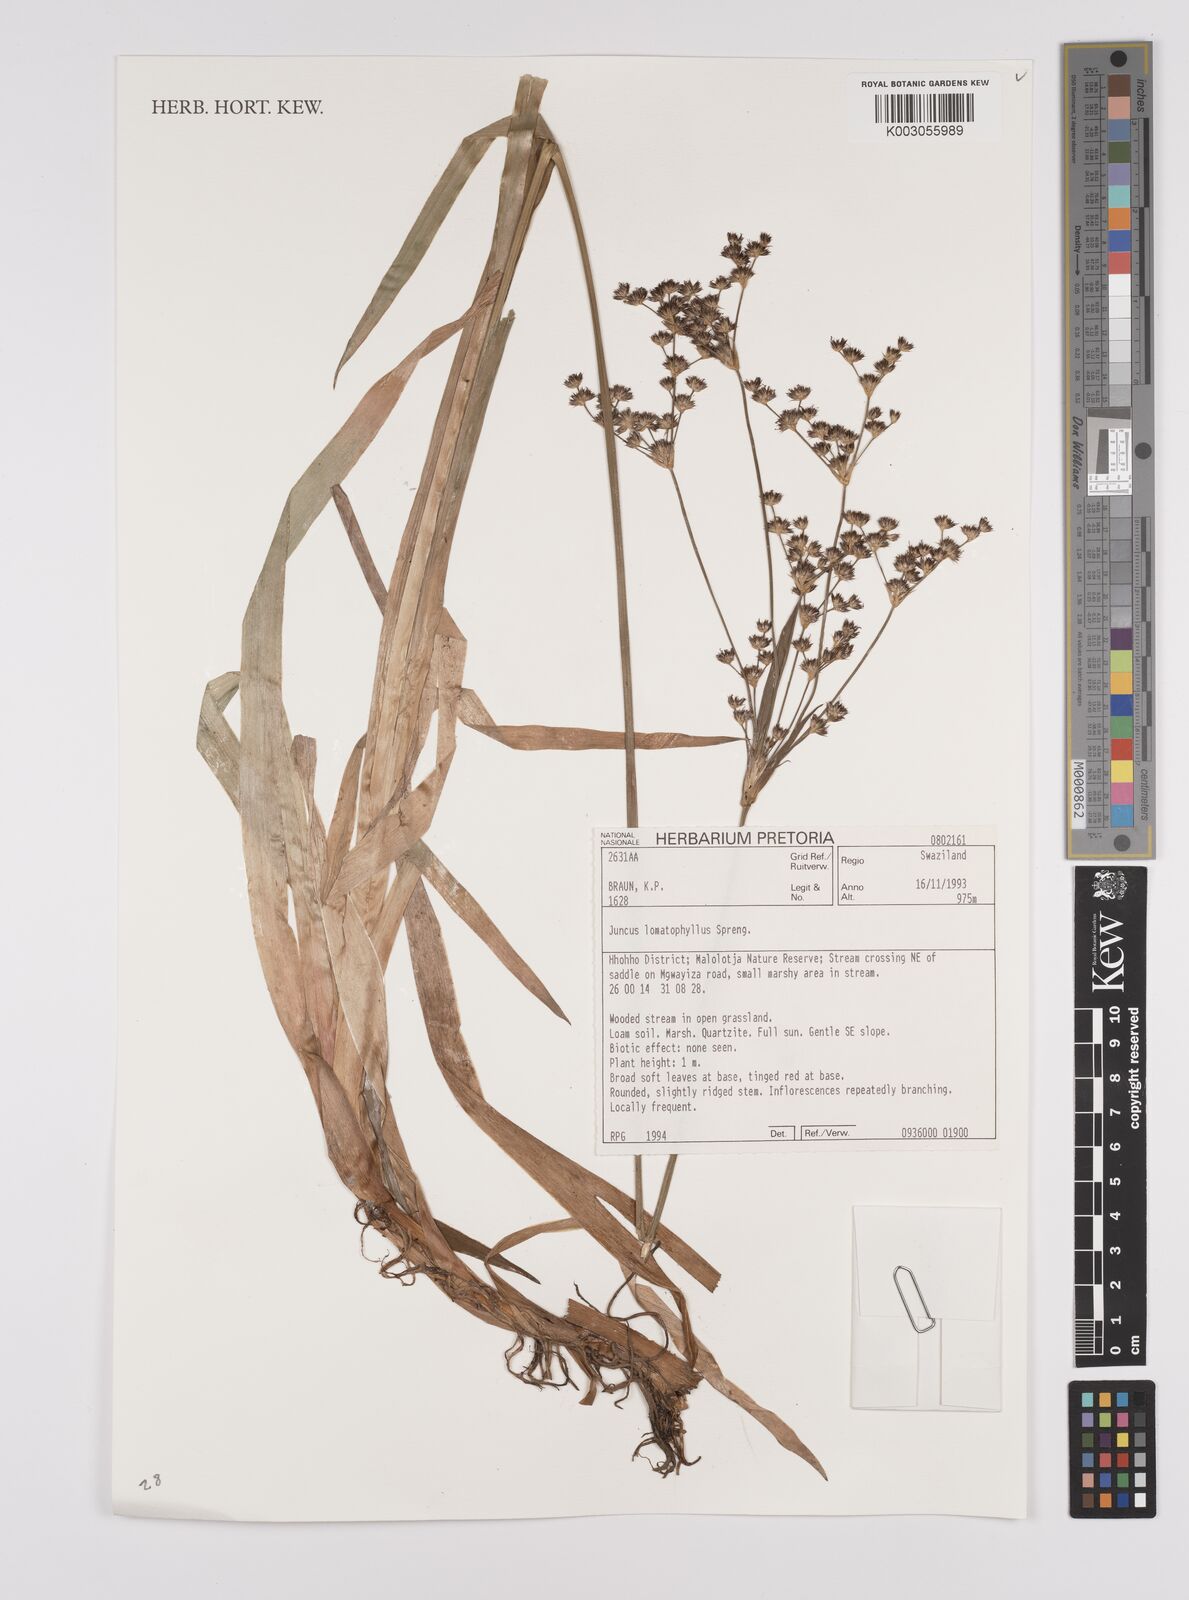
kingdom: Plantae
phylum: Tracheophyta
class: Liliopsida
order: Poales
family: Juncaceae
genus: Juncus
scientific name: Juncus lomatophyllus
